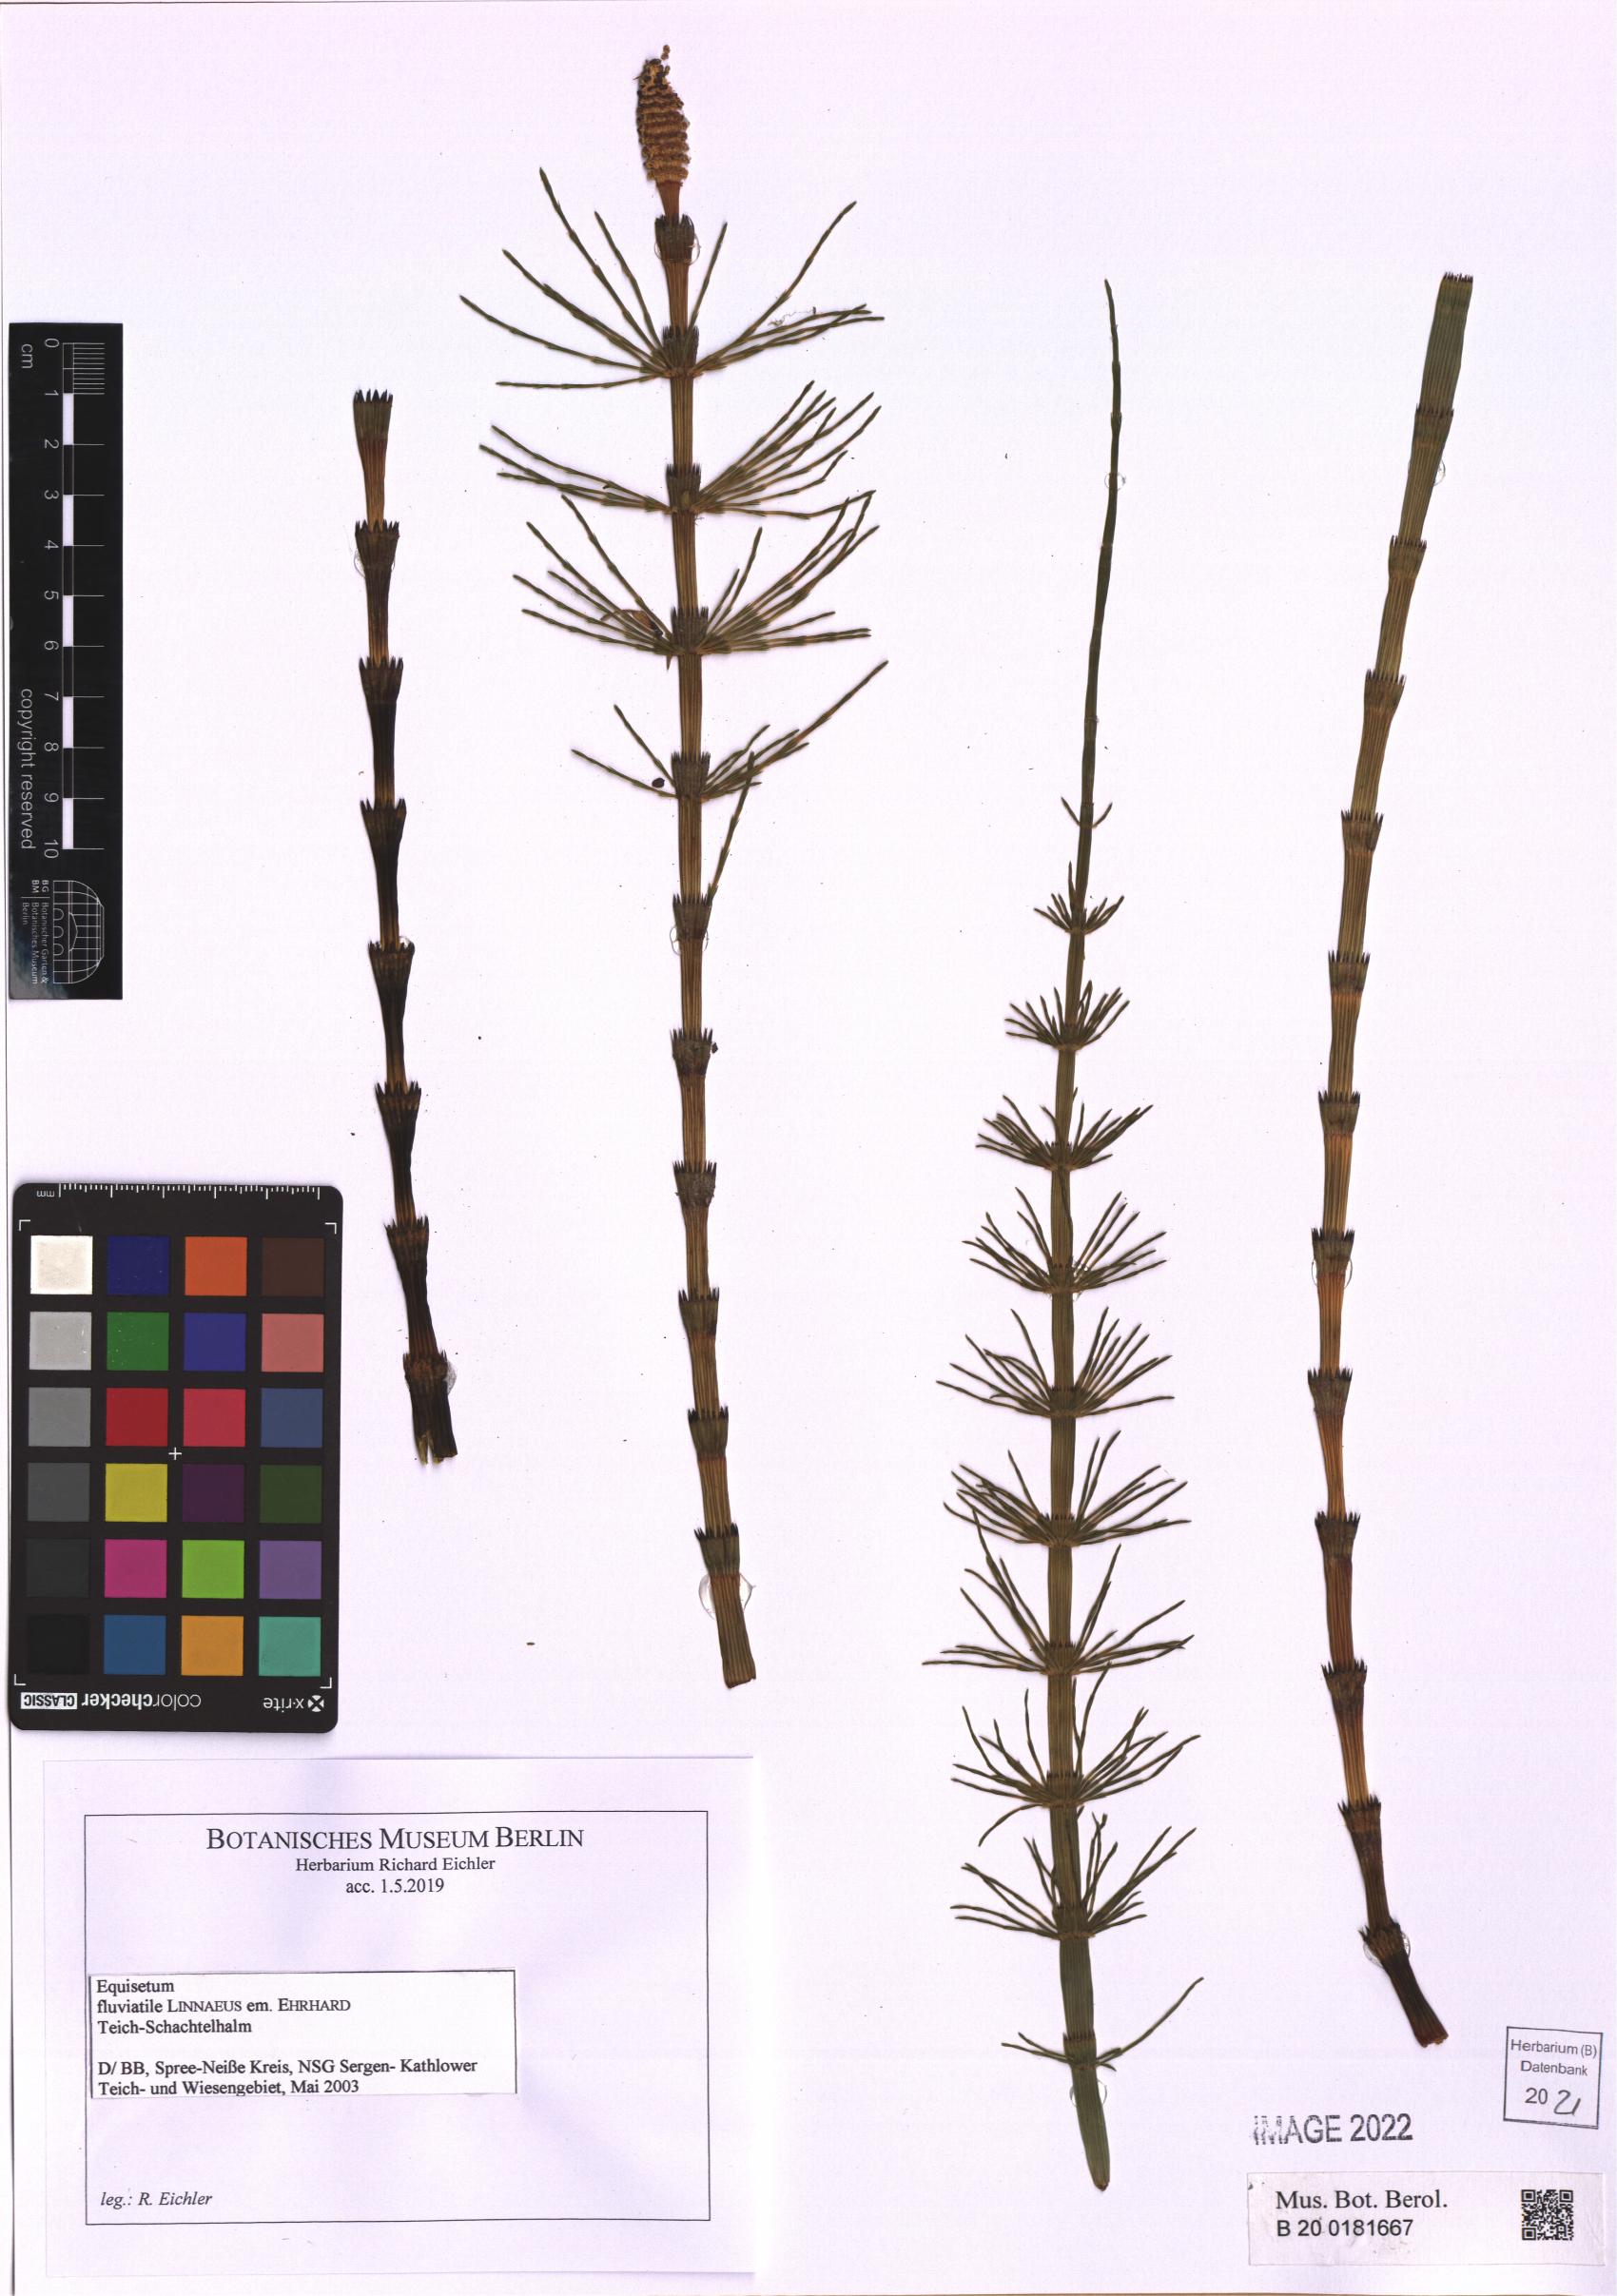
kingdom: Plantae
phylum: Tracheophyta
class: Polypodiopsida
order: Equisetales
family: Equisetaceae
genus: Equisetum
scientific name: Equisetum fluviatile
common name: Water horsetail
